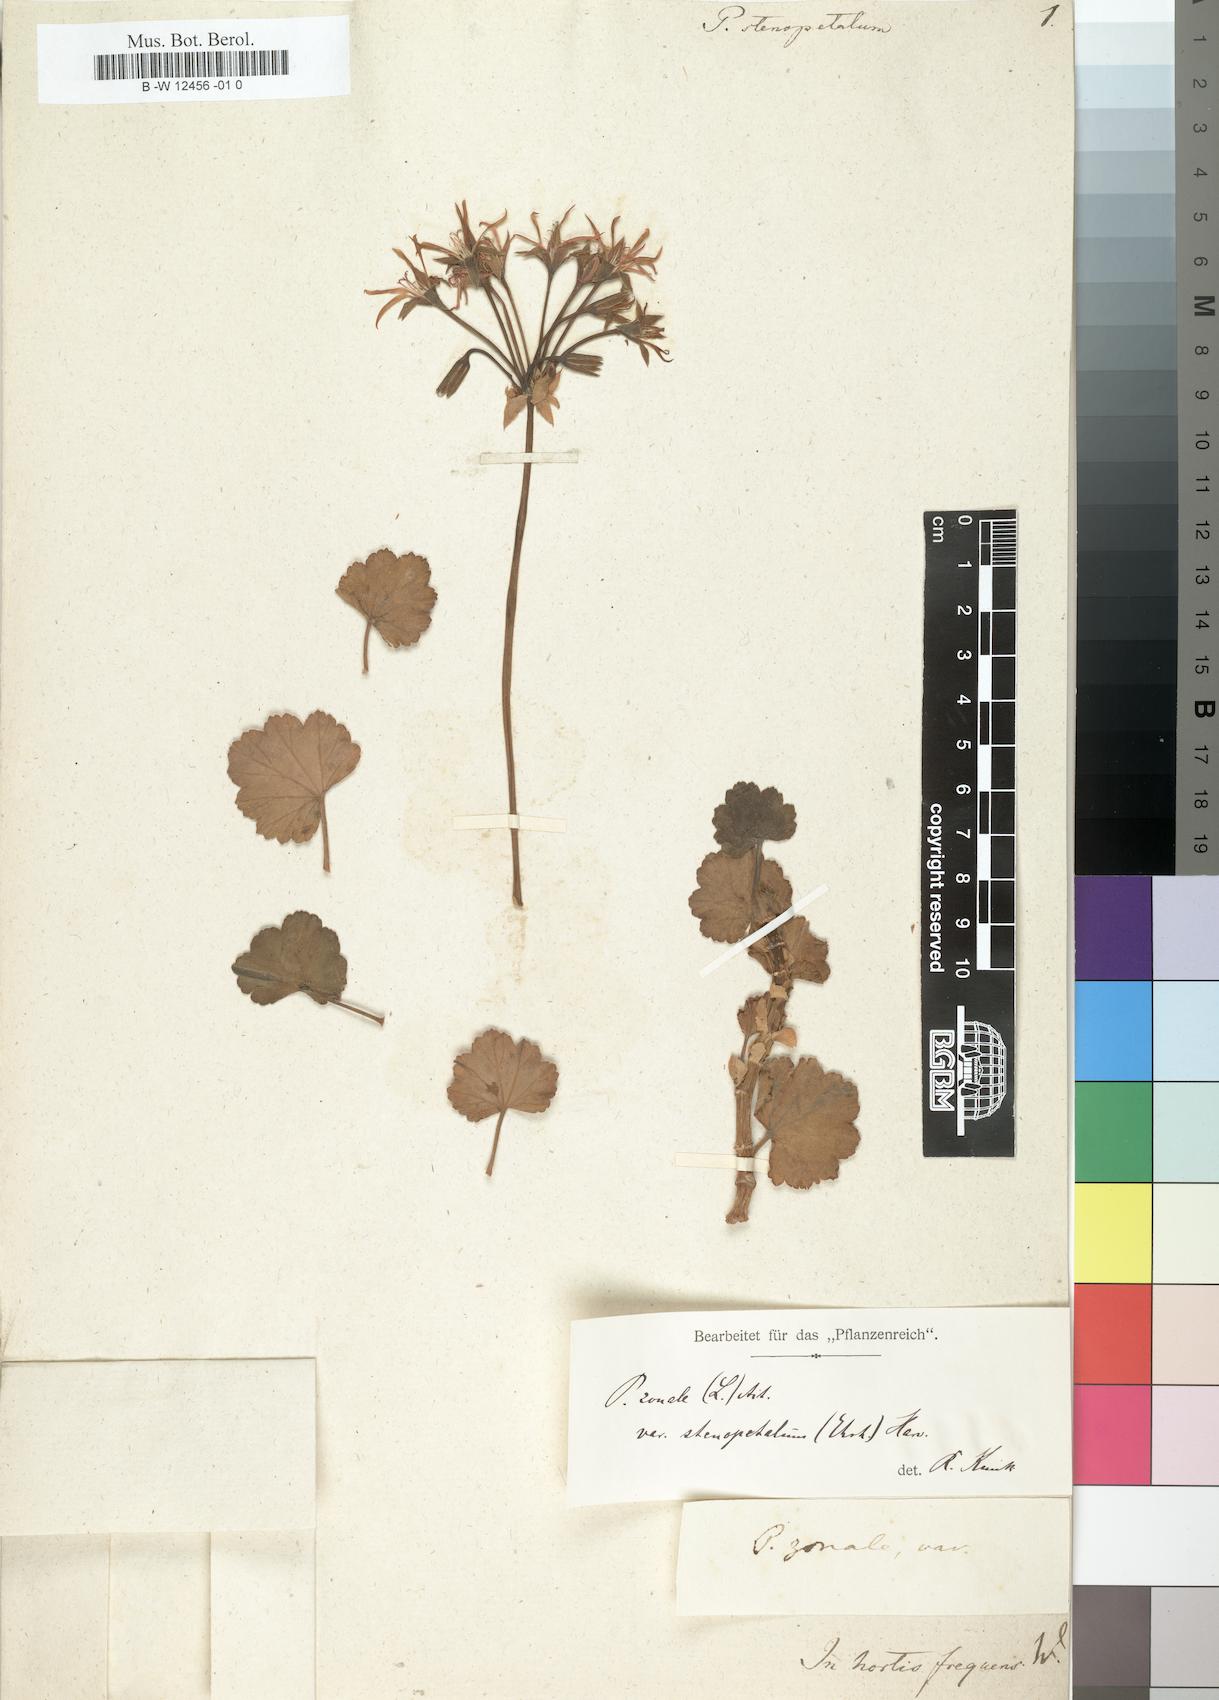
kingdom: Plantae
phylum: Tracheophyta
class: Magnoliopsida
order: Geraniales
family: Geraniaceae
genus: Pelargonium
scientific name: Pelargonium zonale
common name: Horseshoe geranium
